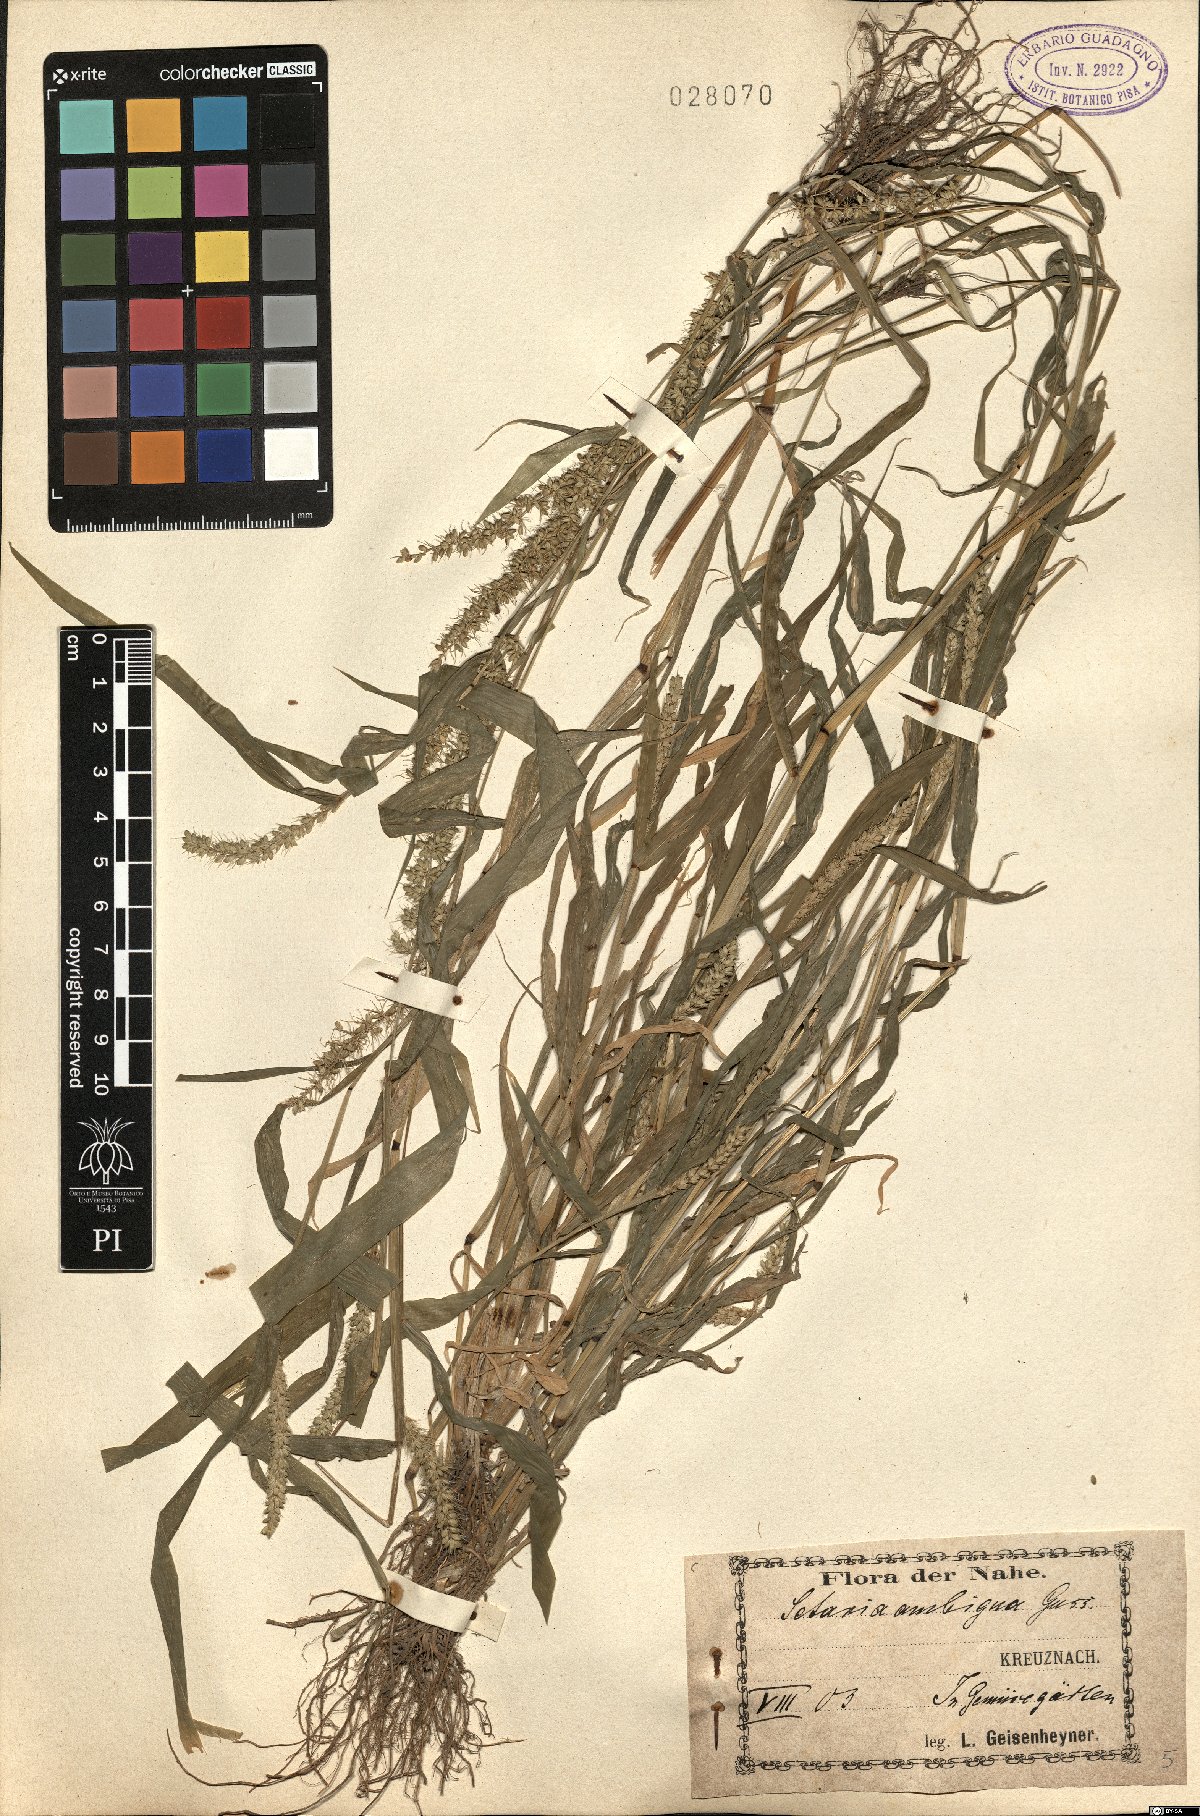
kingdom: Plantae
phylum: Tracheophyta
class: Liliopsida
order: Poales
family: Poaceae
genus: Setaria
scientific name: Setaria verticillata
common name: Hooked bristlegrass
